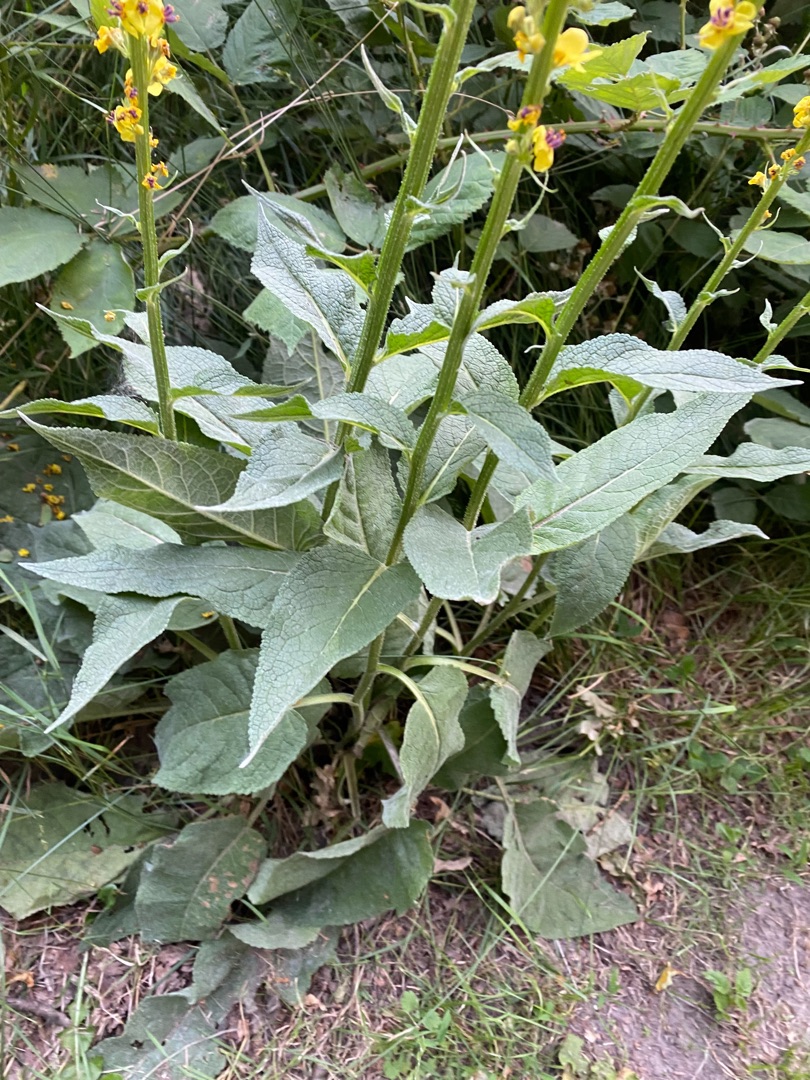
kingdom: Plantae
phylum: Tracheophyta
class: Magnoliopsida
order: Lamiales
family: Scrophulariaceae
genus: Verbascum
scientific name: Verbascum nigrum
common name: Mørk kongelys
